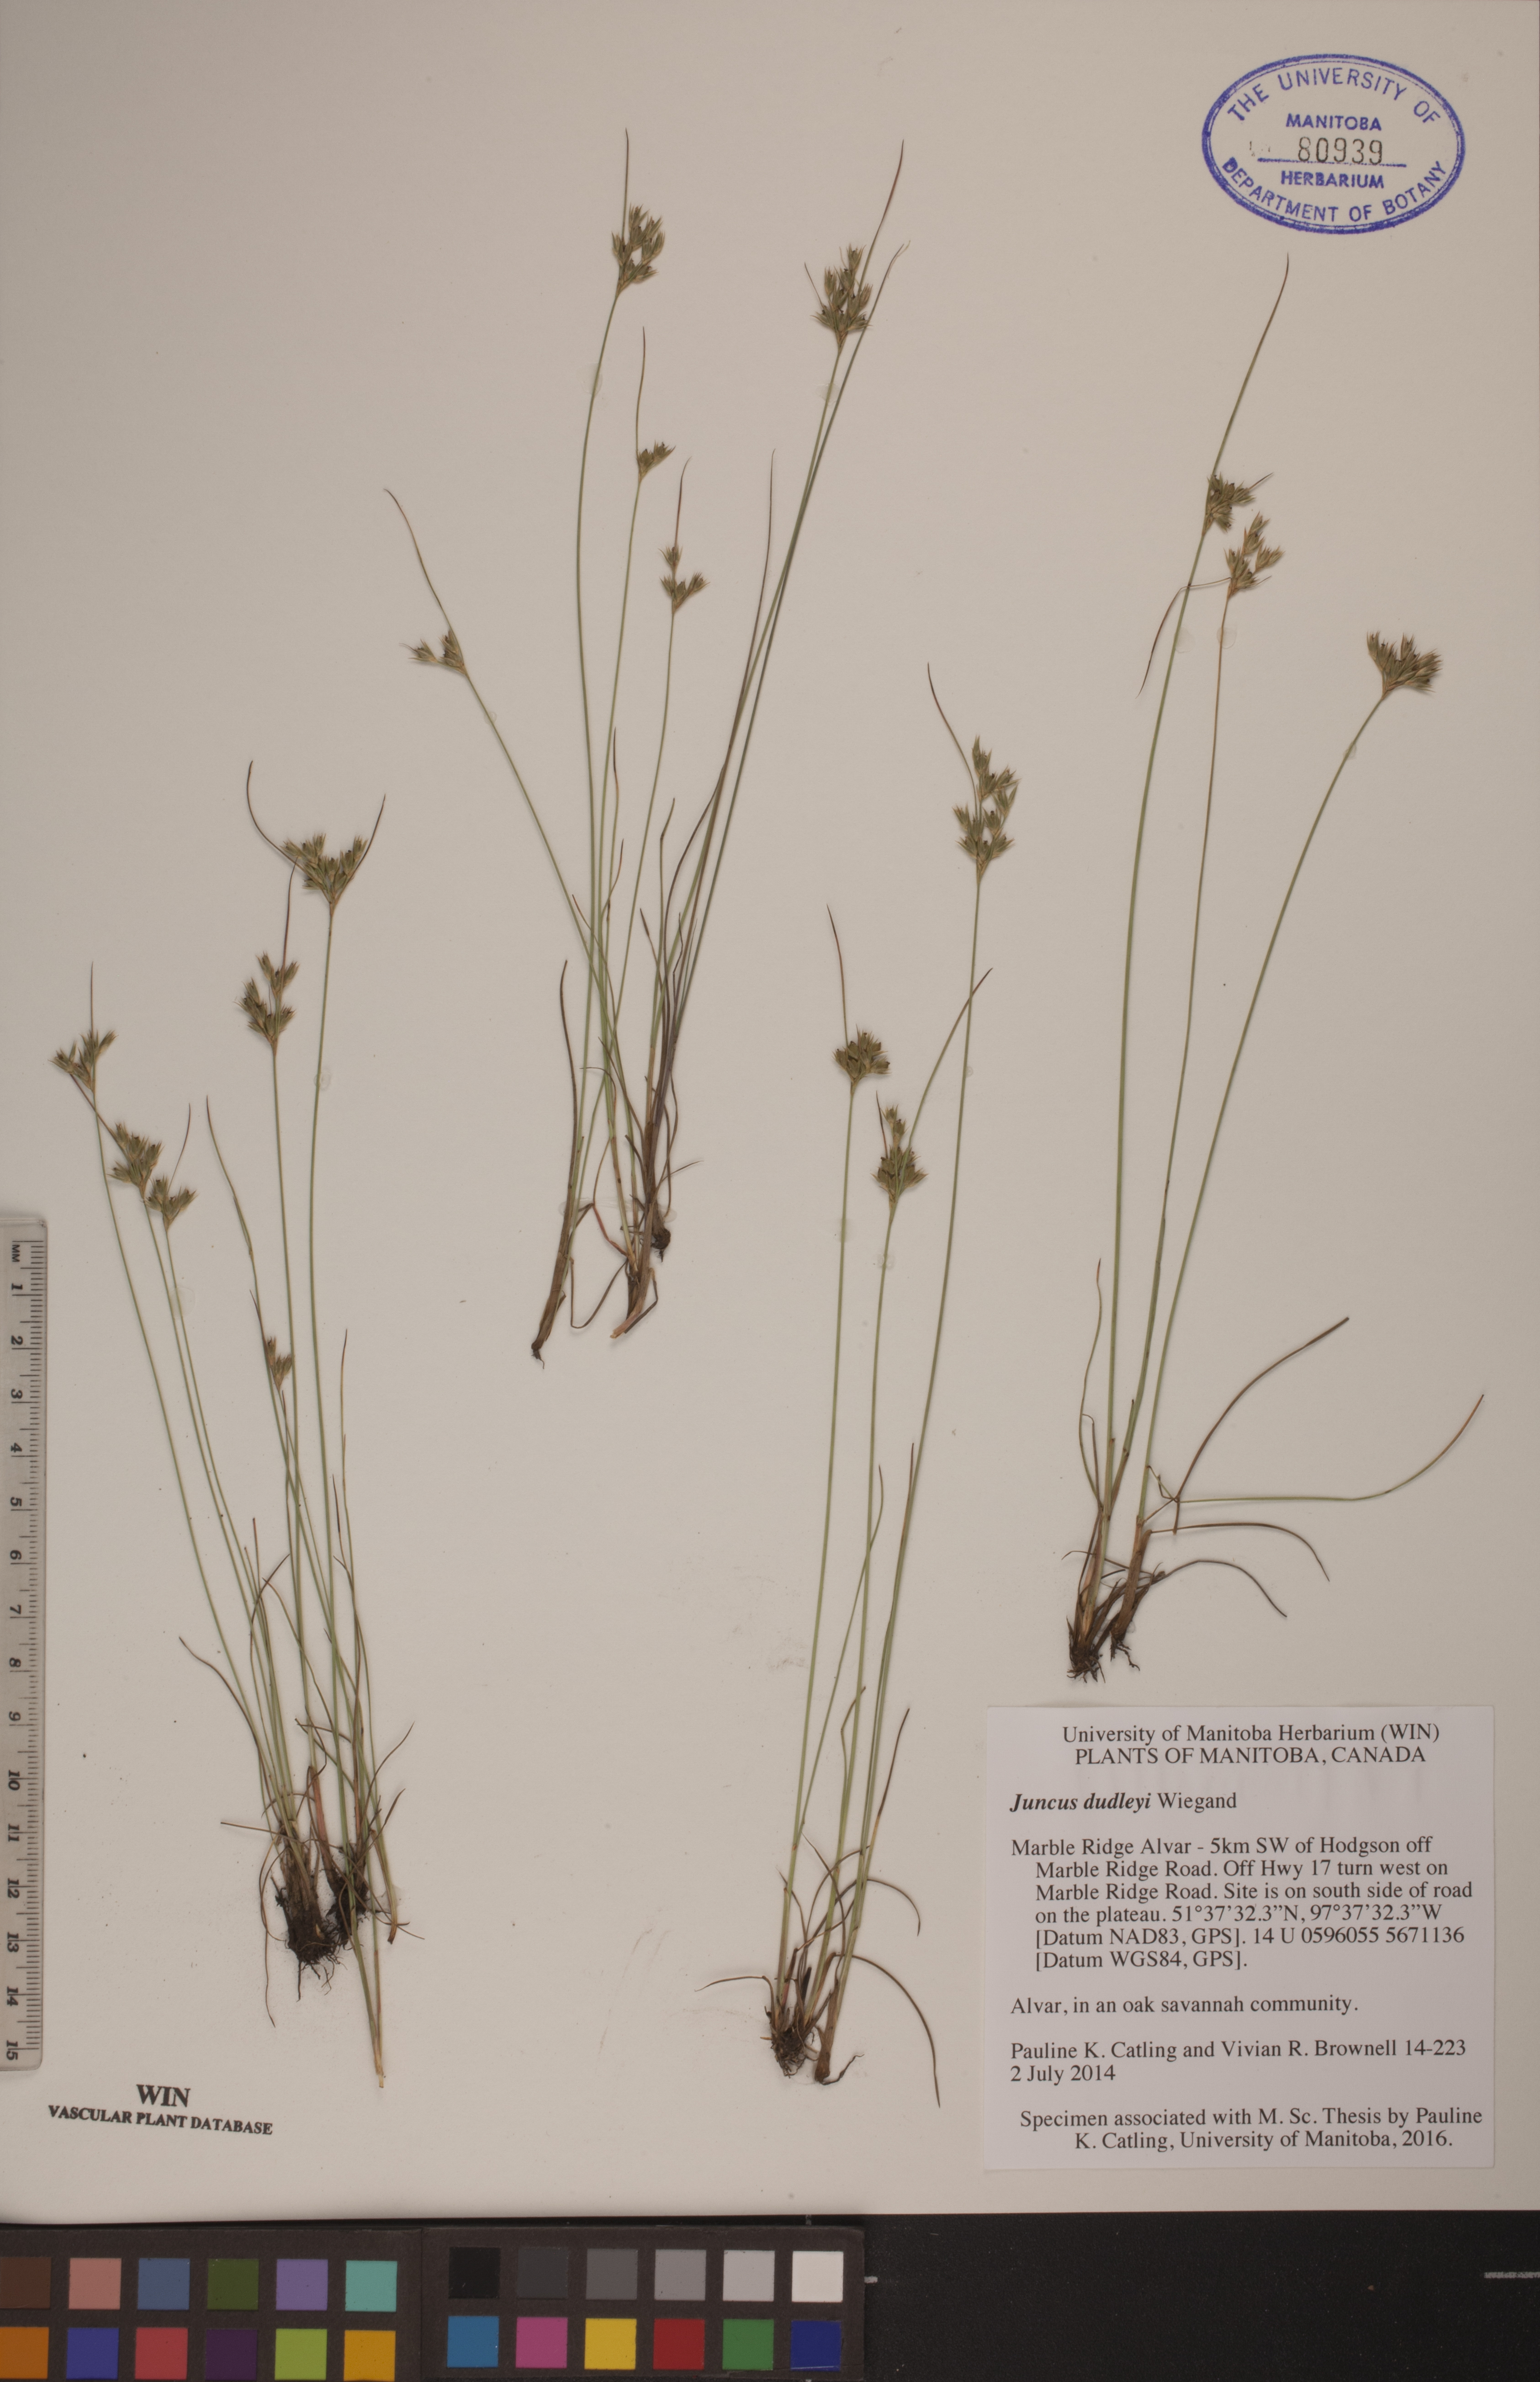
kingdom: Plantae
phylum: Tracheophyta
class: Liliopsida
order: Poales
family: Juncaceae
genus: Juncus
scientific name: Juncus dudleyi
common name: Dudley's rush
